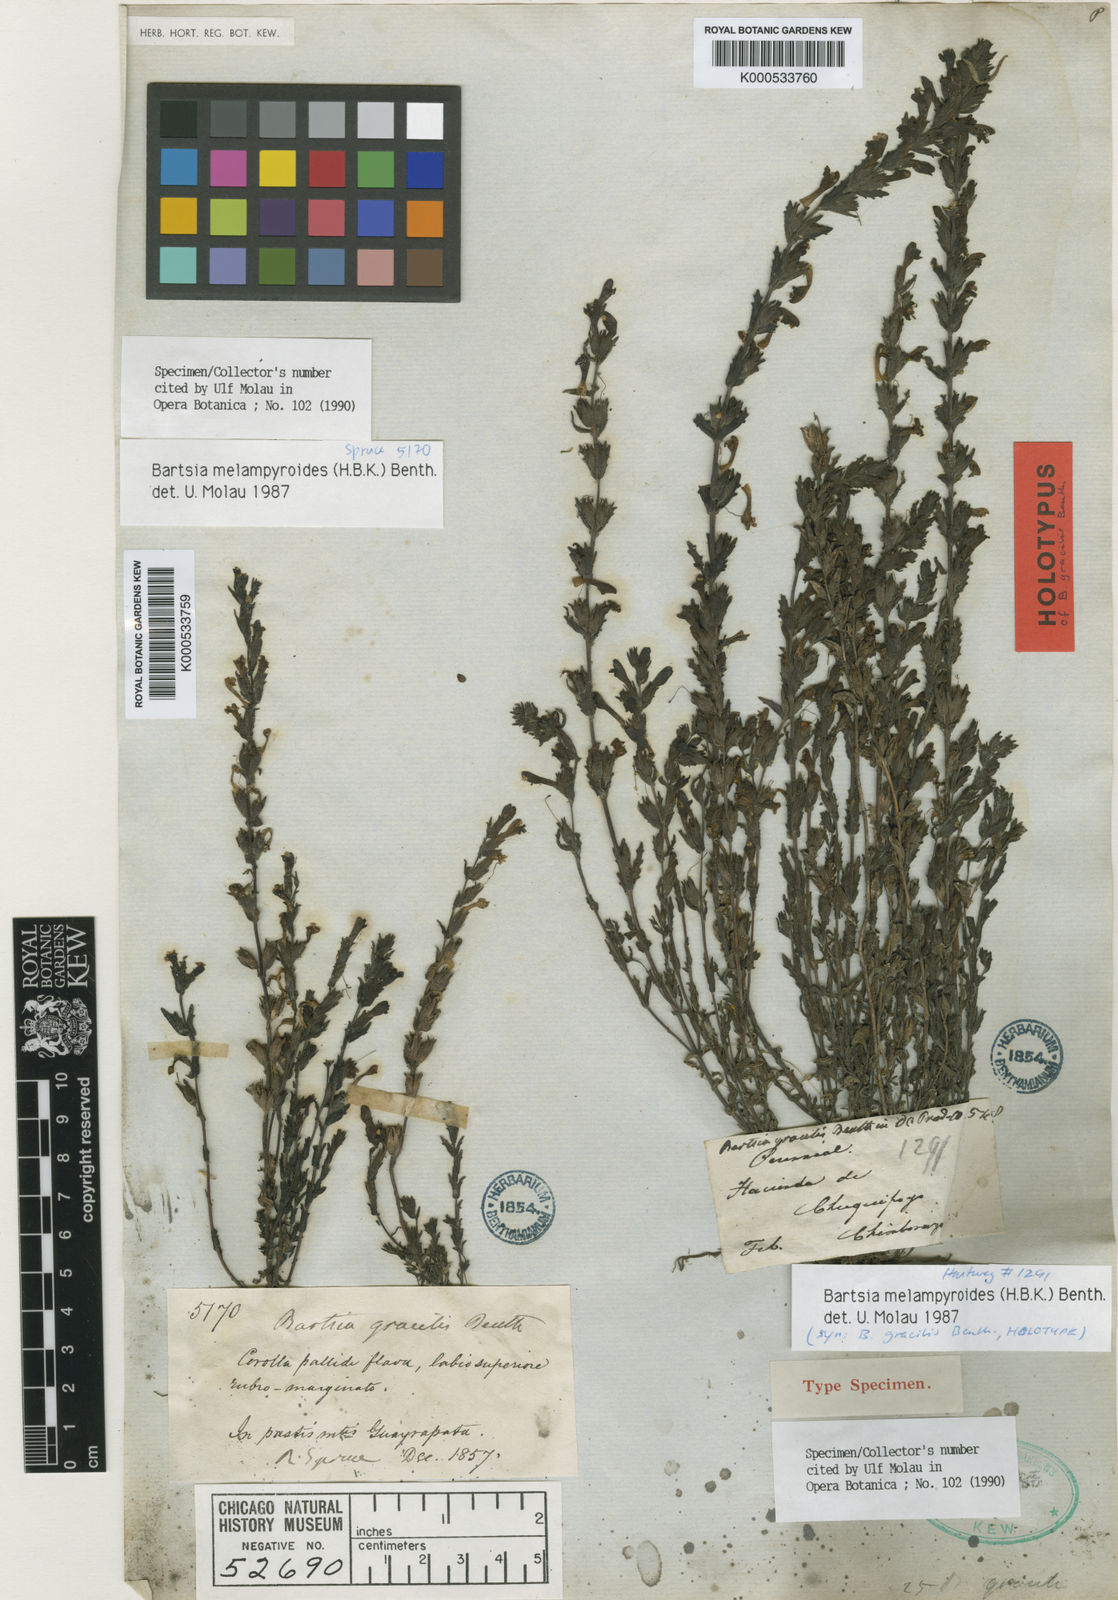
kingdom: Plantae
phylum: Tracheophyta
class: Magnoliopsida
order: Lamiales
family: Orobanchaceae
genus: Neobartsia
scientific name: Neobartsia melampyroides
